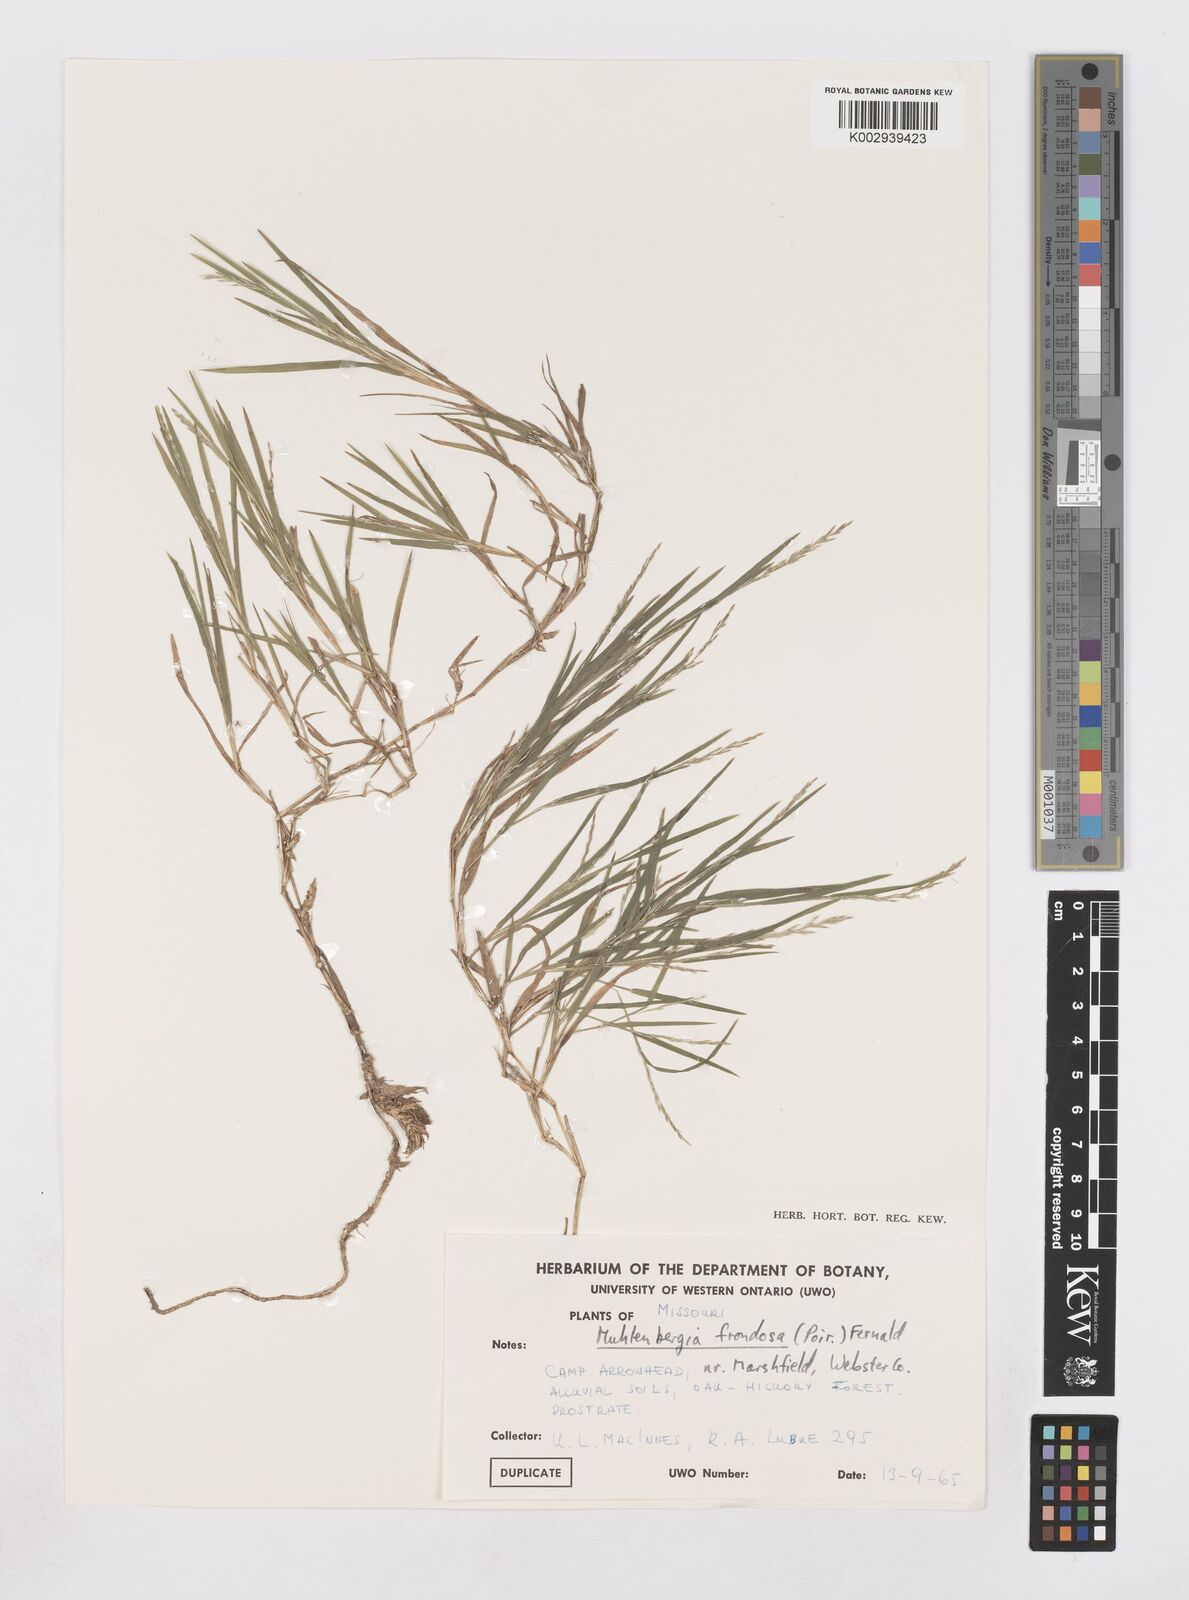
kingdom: Plantae
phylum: Tracheophyta
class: Liliopsida
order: Poales
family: Poaceae
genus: Muhlenbergia
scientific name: Muhlenbergia frondosa
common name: Common satingrass
